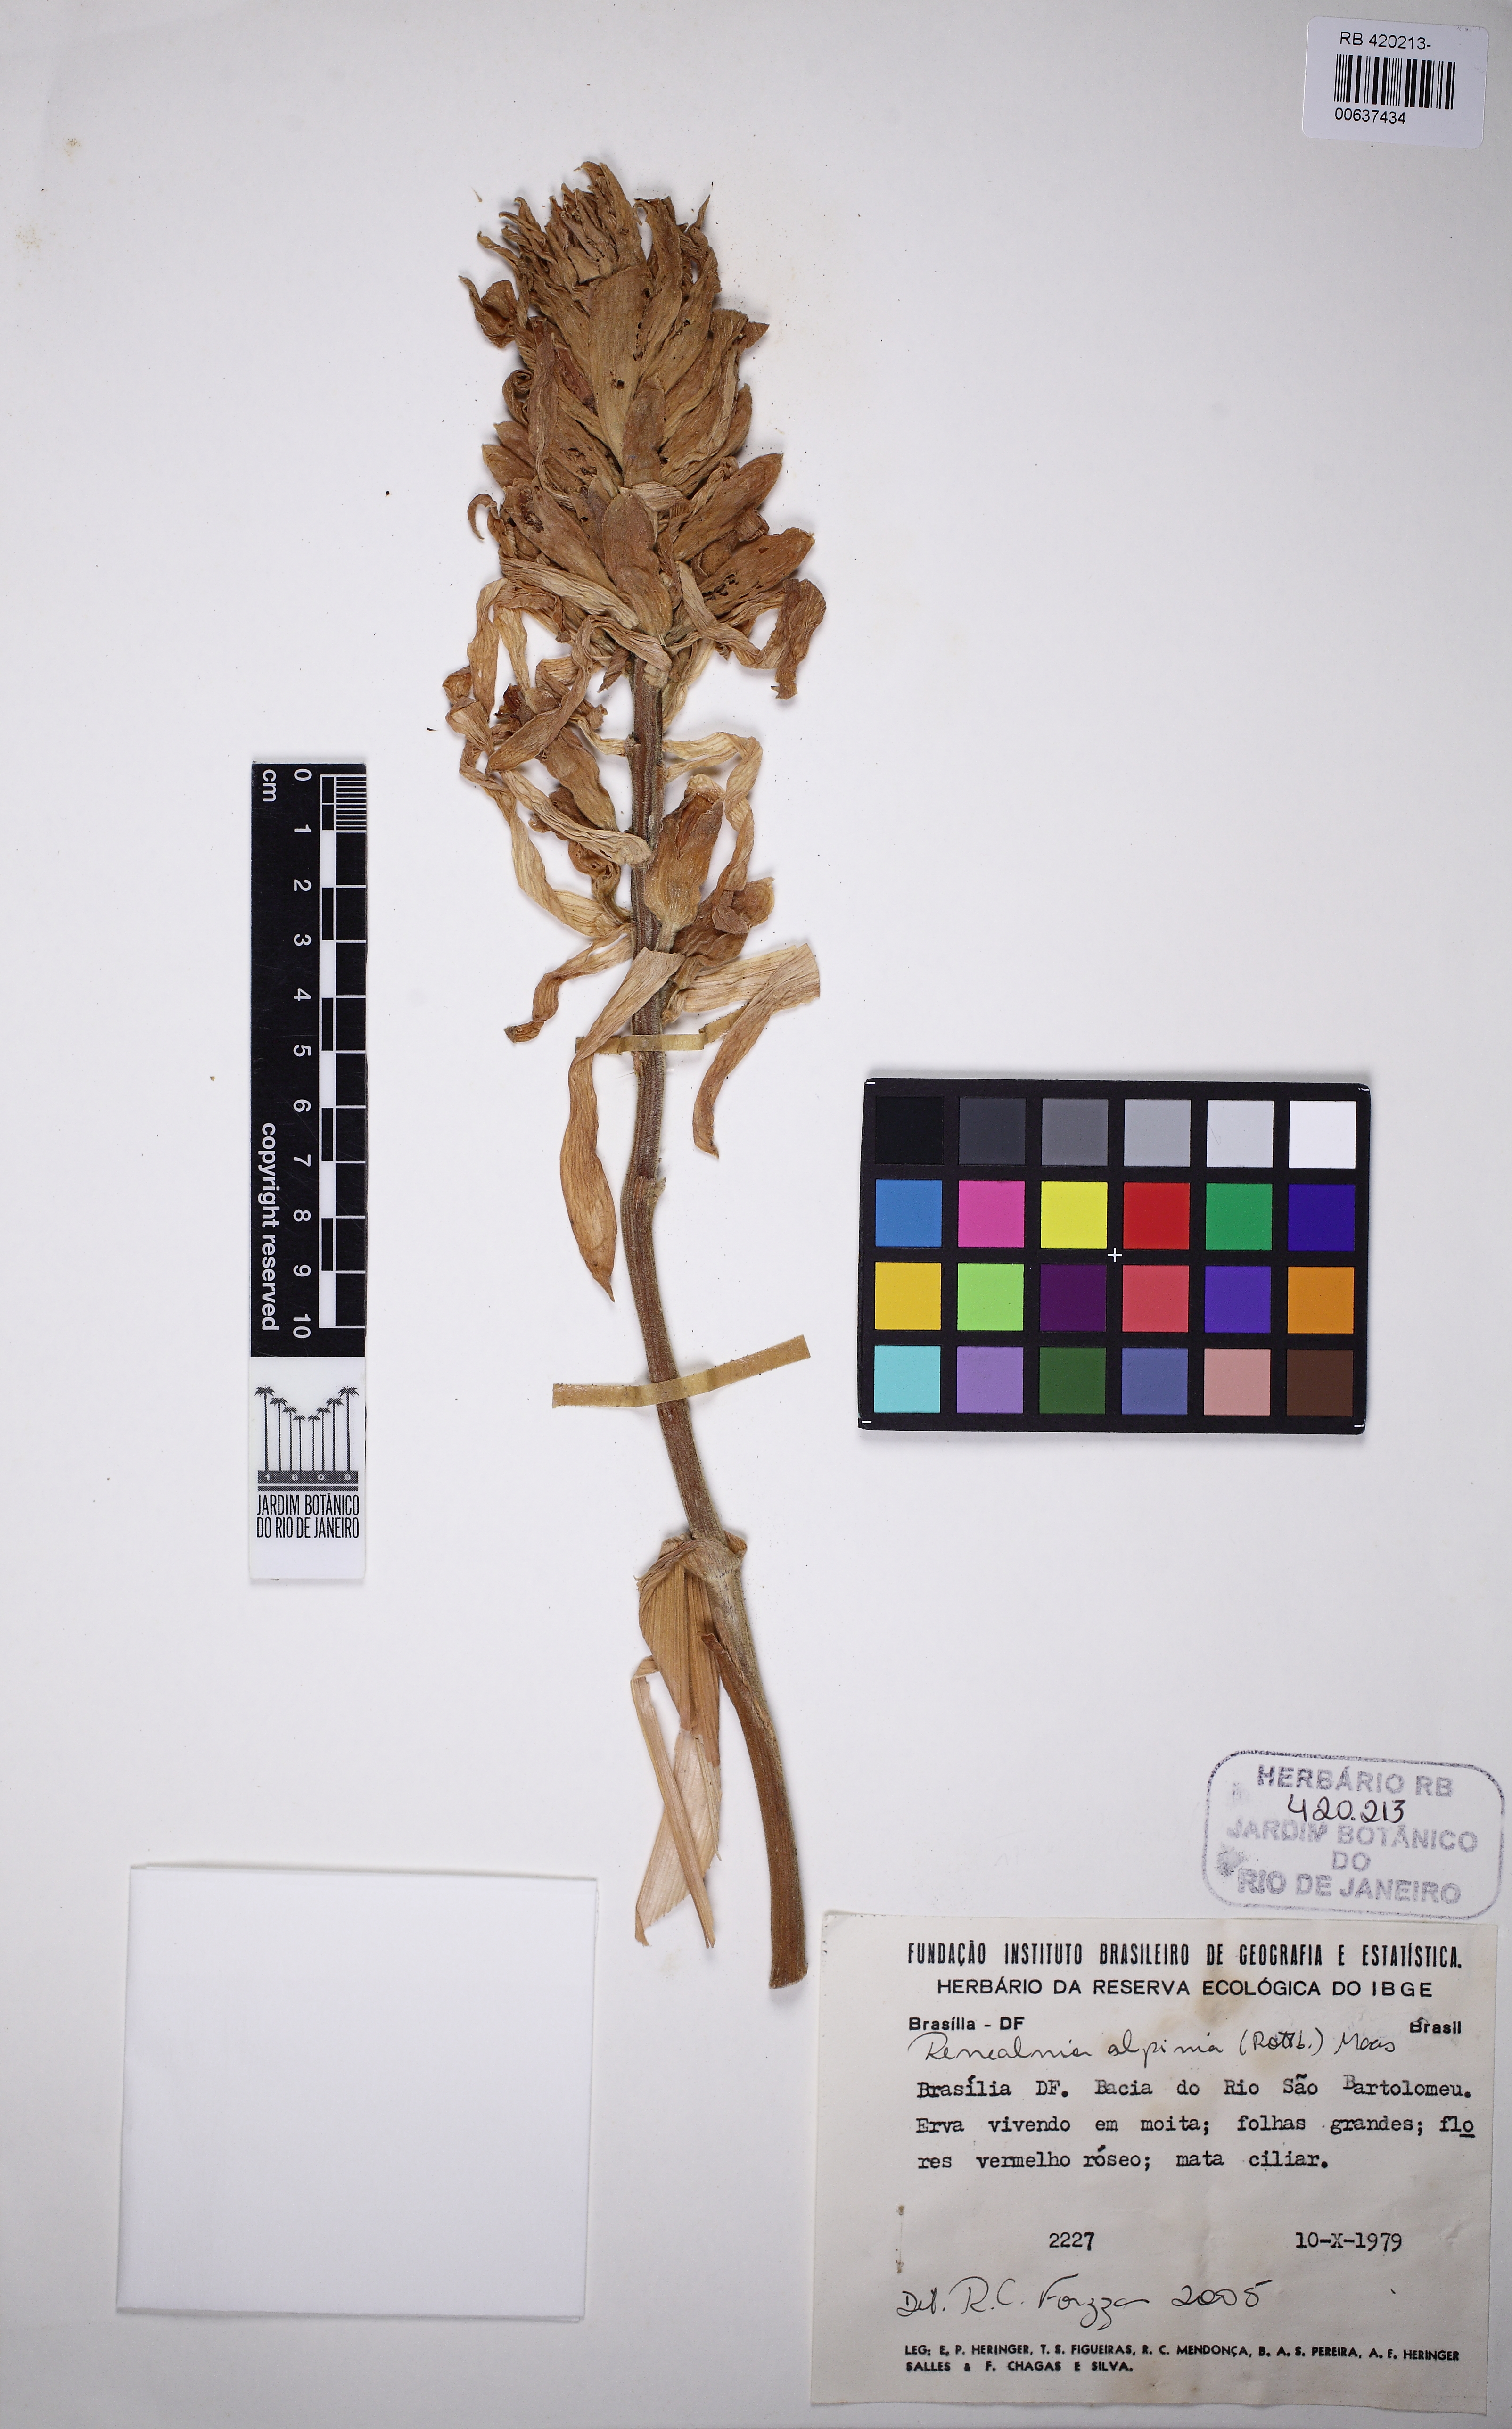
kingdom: Plantae
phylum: Tracheophyta
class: Liliopsida
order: Zingiberales
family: Zingiberaceae
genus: Renealmia
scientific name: Renealmia alpinia
